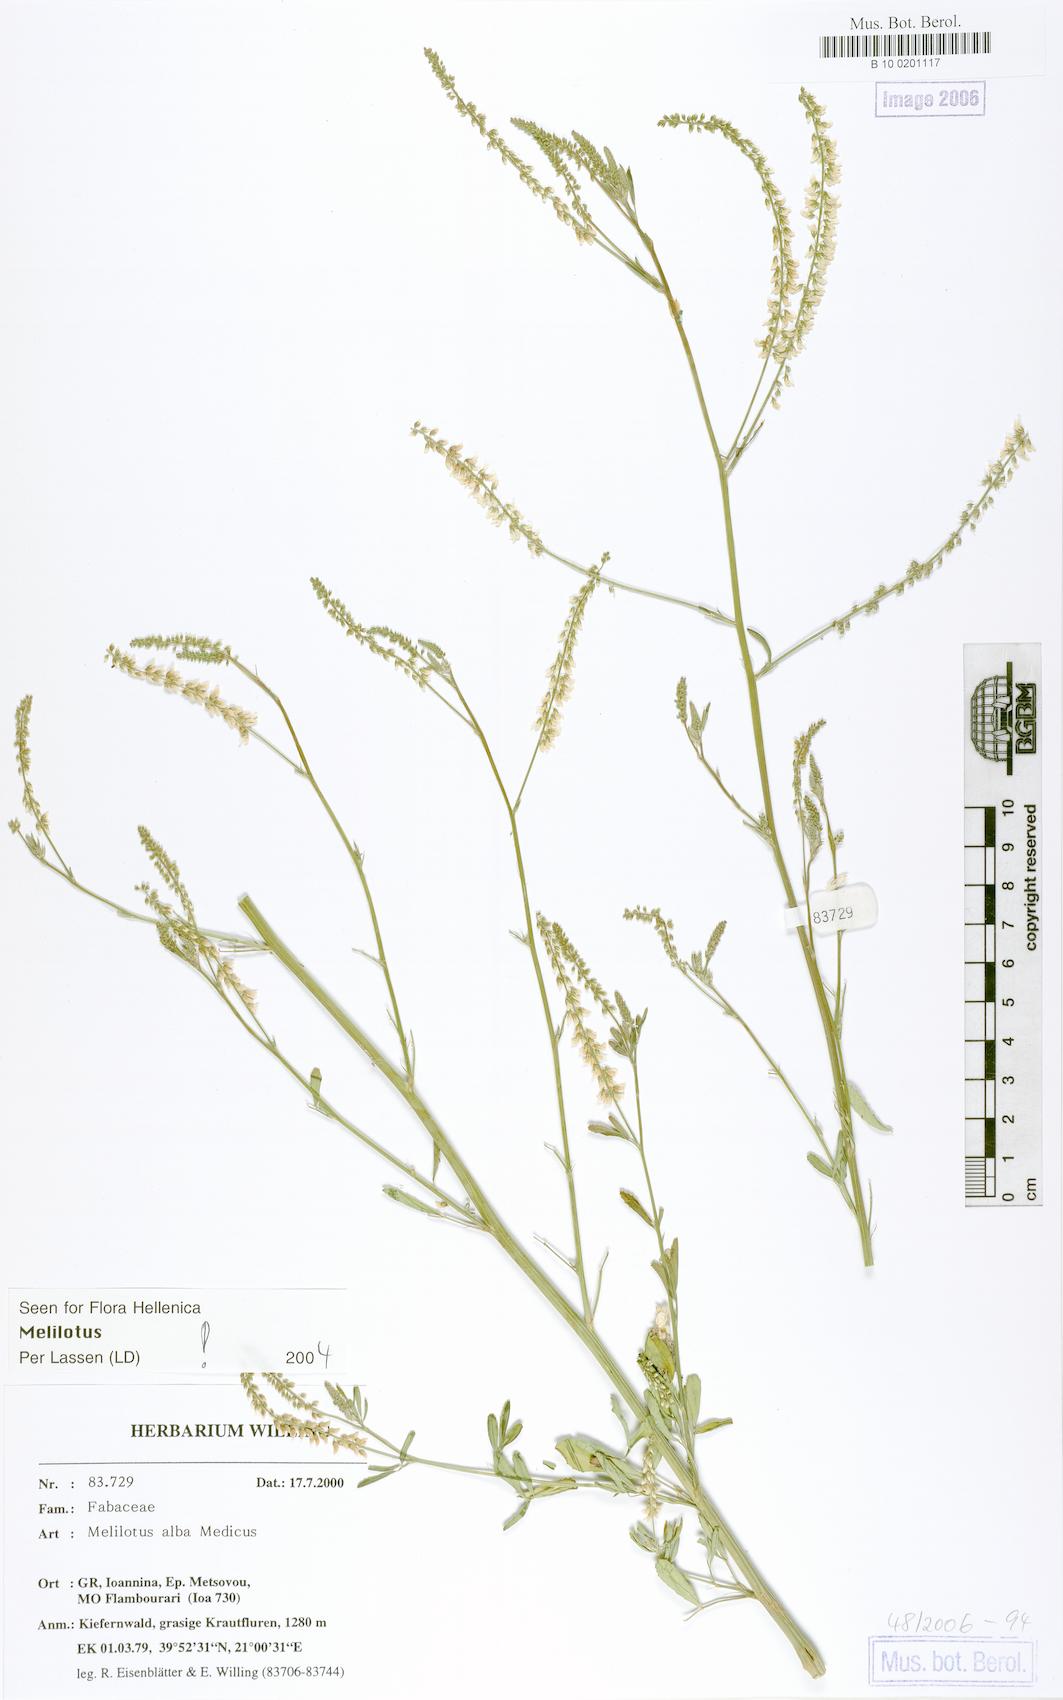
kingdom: Plantae
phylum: Tracheophyta
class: Magnoliopsida
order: Fabales
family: Fabaceae
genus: Melilotus
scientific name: Melilotus albus
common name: White melilot
